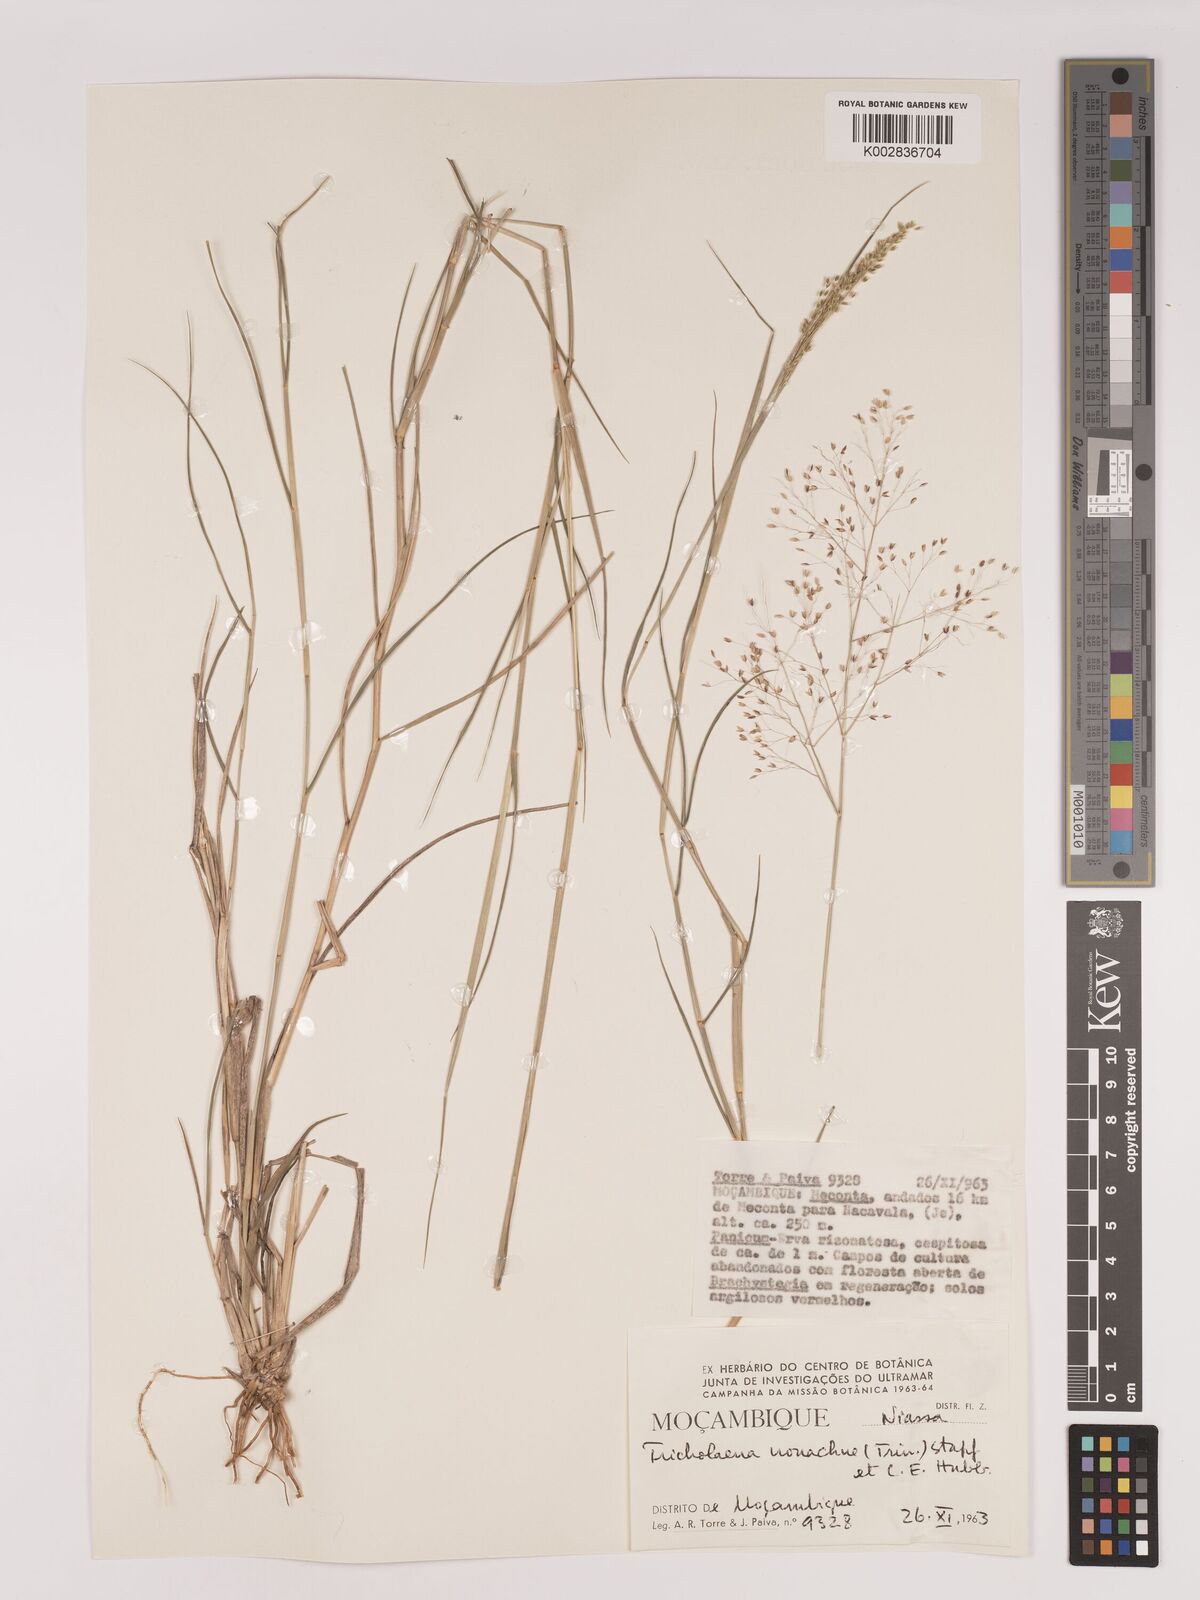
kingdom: Plantae
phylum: Tracheophyta
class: Liliopsida
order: Poales
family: Poaceae
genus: Tricholaena
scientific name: Tricholaena monachne
